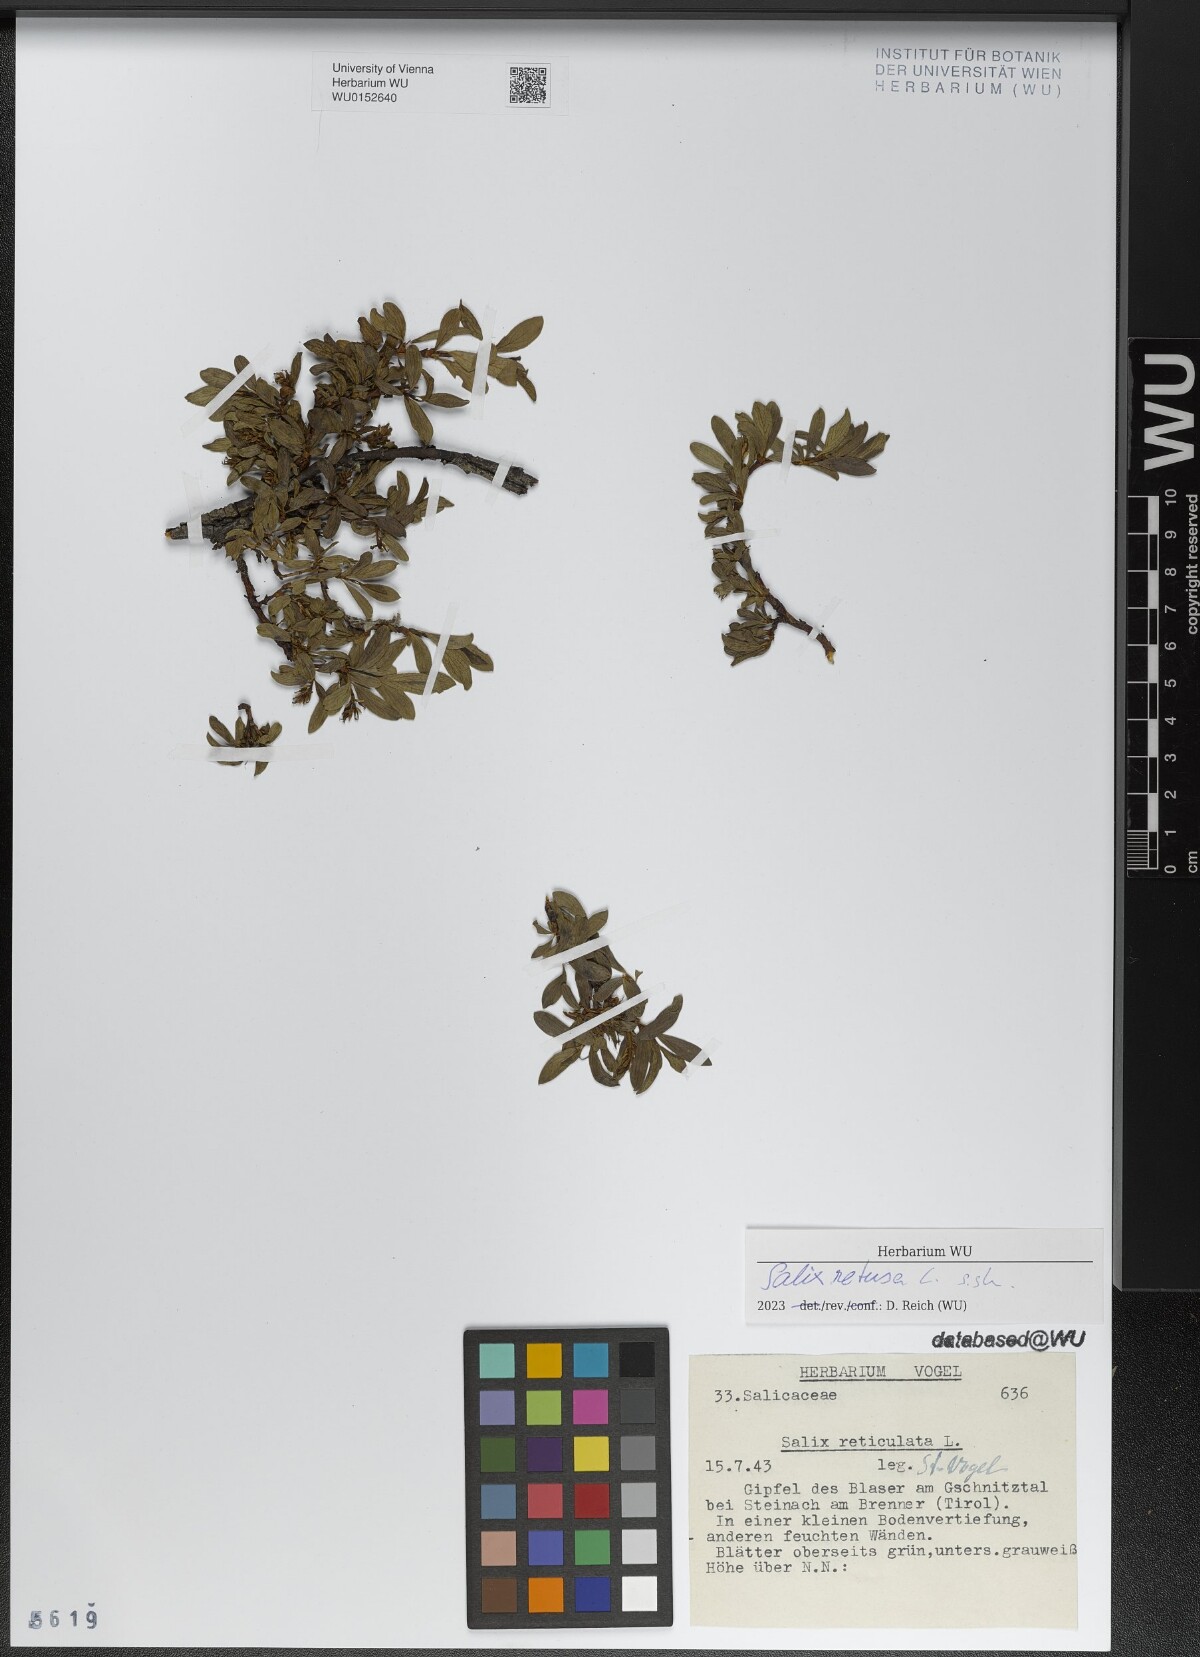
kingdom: Plantae
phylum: Tracheophyta
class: Magnoliopsida
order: Malpighiales
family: Salicaceae
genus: Salix
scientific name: Salix retusa
